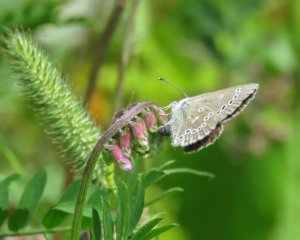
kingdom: Animalia
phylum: Arthropoda
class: Insecta
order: Lepidoptera
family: Lycaenidae
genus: Glaucopsyche
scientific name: Glaucopsyche lygdamus
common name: Silvery Blue
